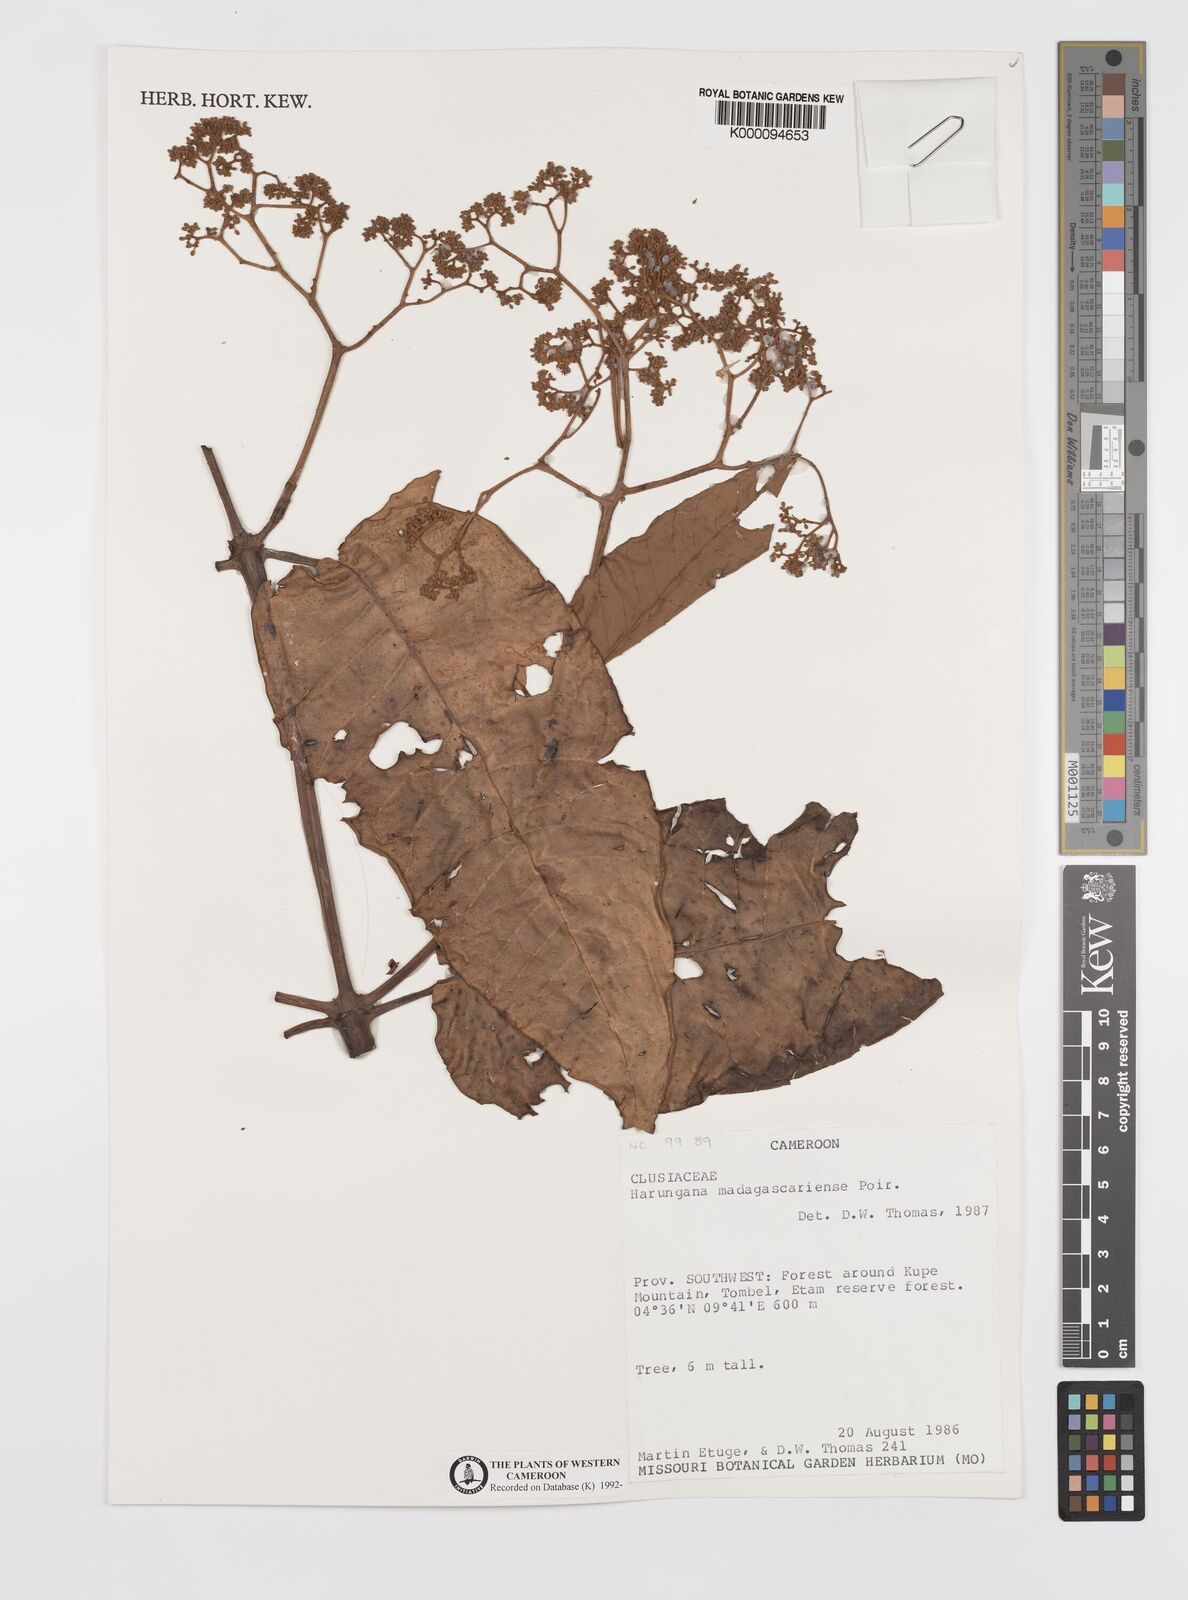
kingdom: Plantae
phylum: Tracheophyta
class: Magnoliopsida
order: Malpighiales
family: Hypericaceae
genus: Harungana
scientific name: Harungana madagascariensis
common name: Orange milktree
